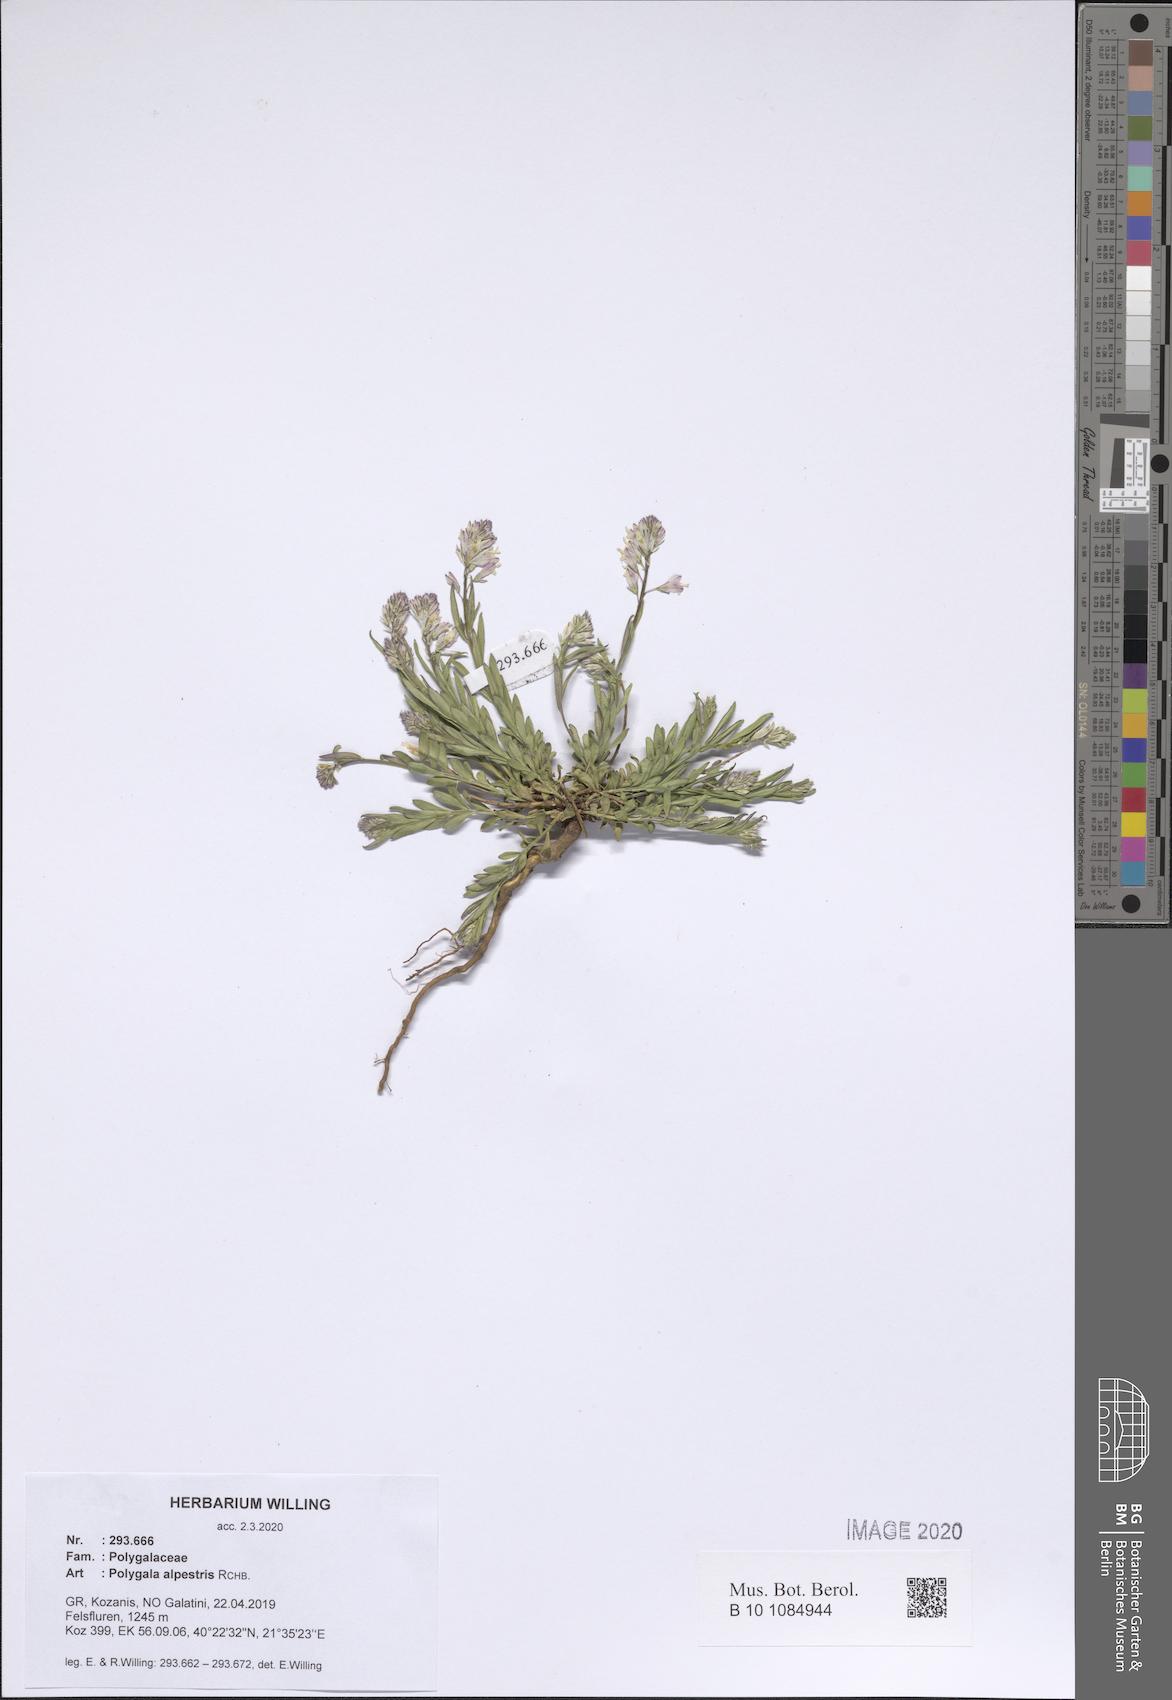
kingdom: Plantae
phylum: Tracheophyta
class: Magnoliopsida
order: Fabales
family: Polygalaceae
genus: Polygala
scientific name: Polygala alpestris
